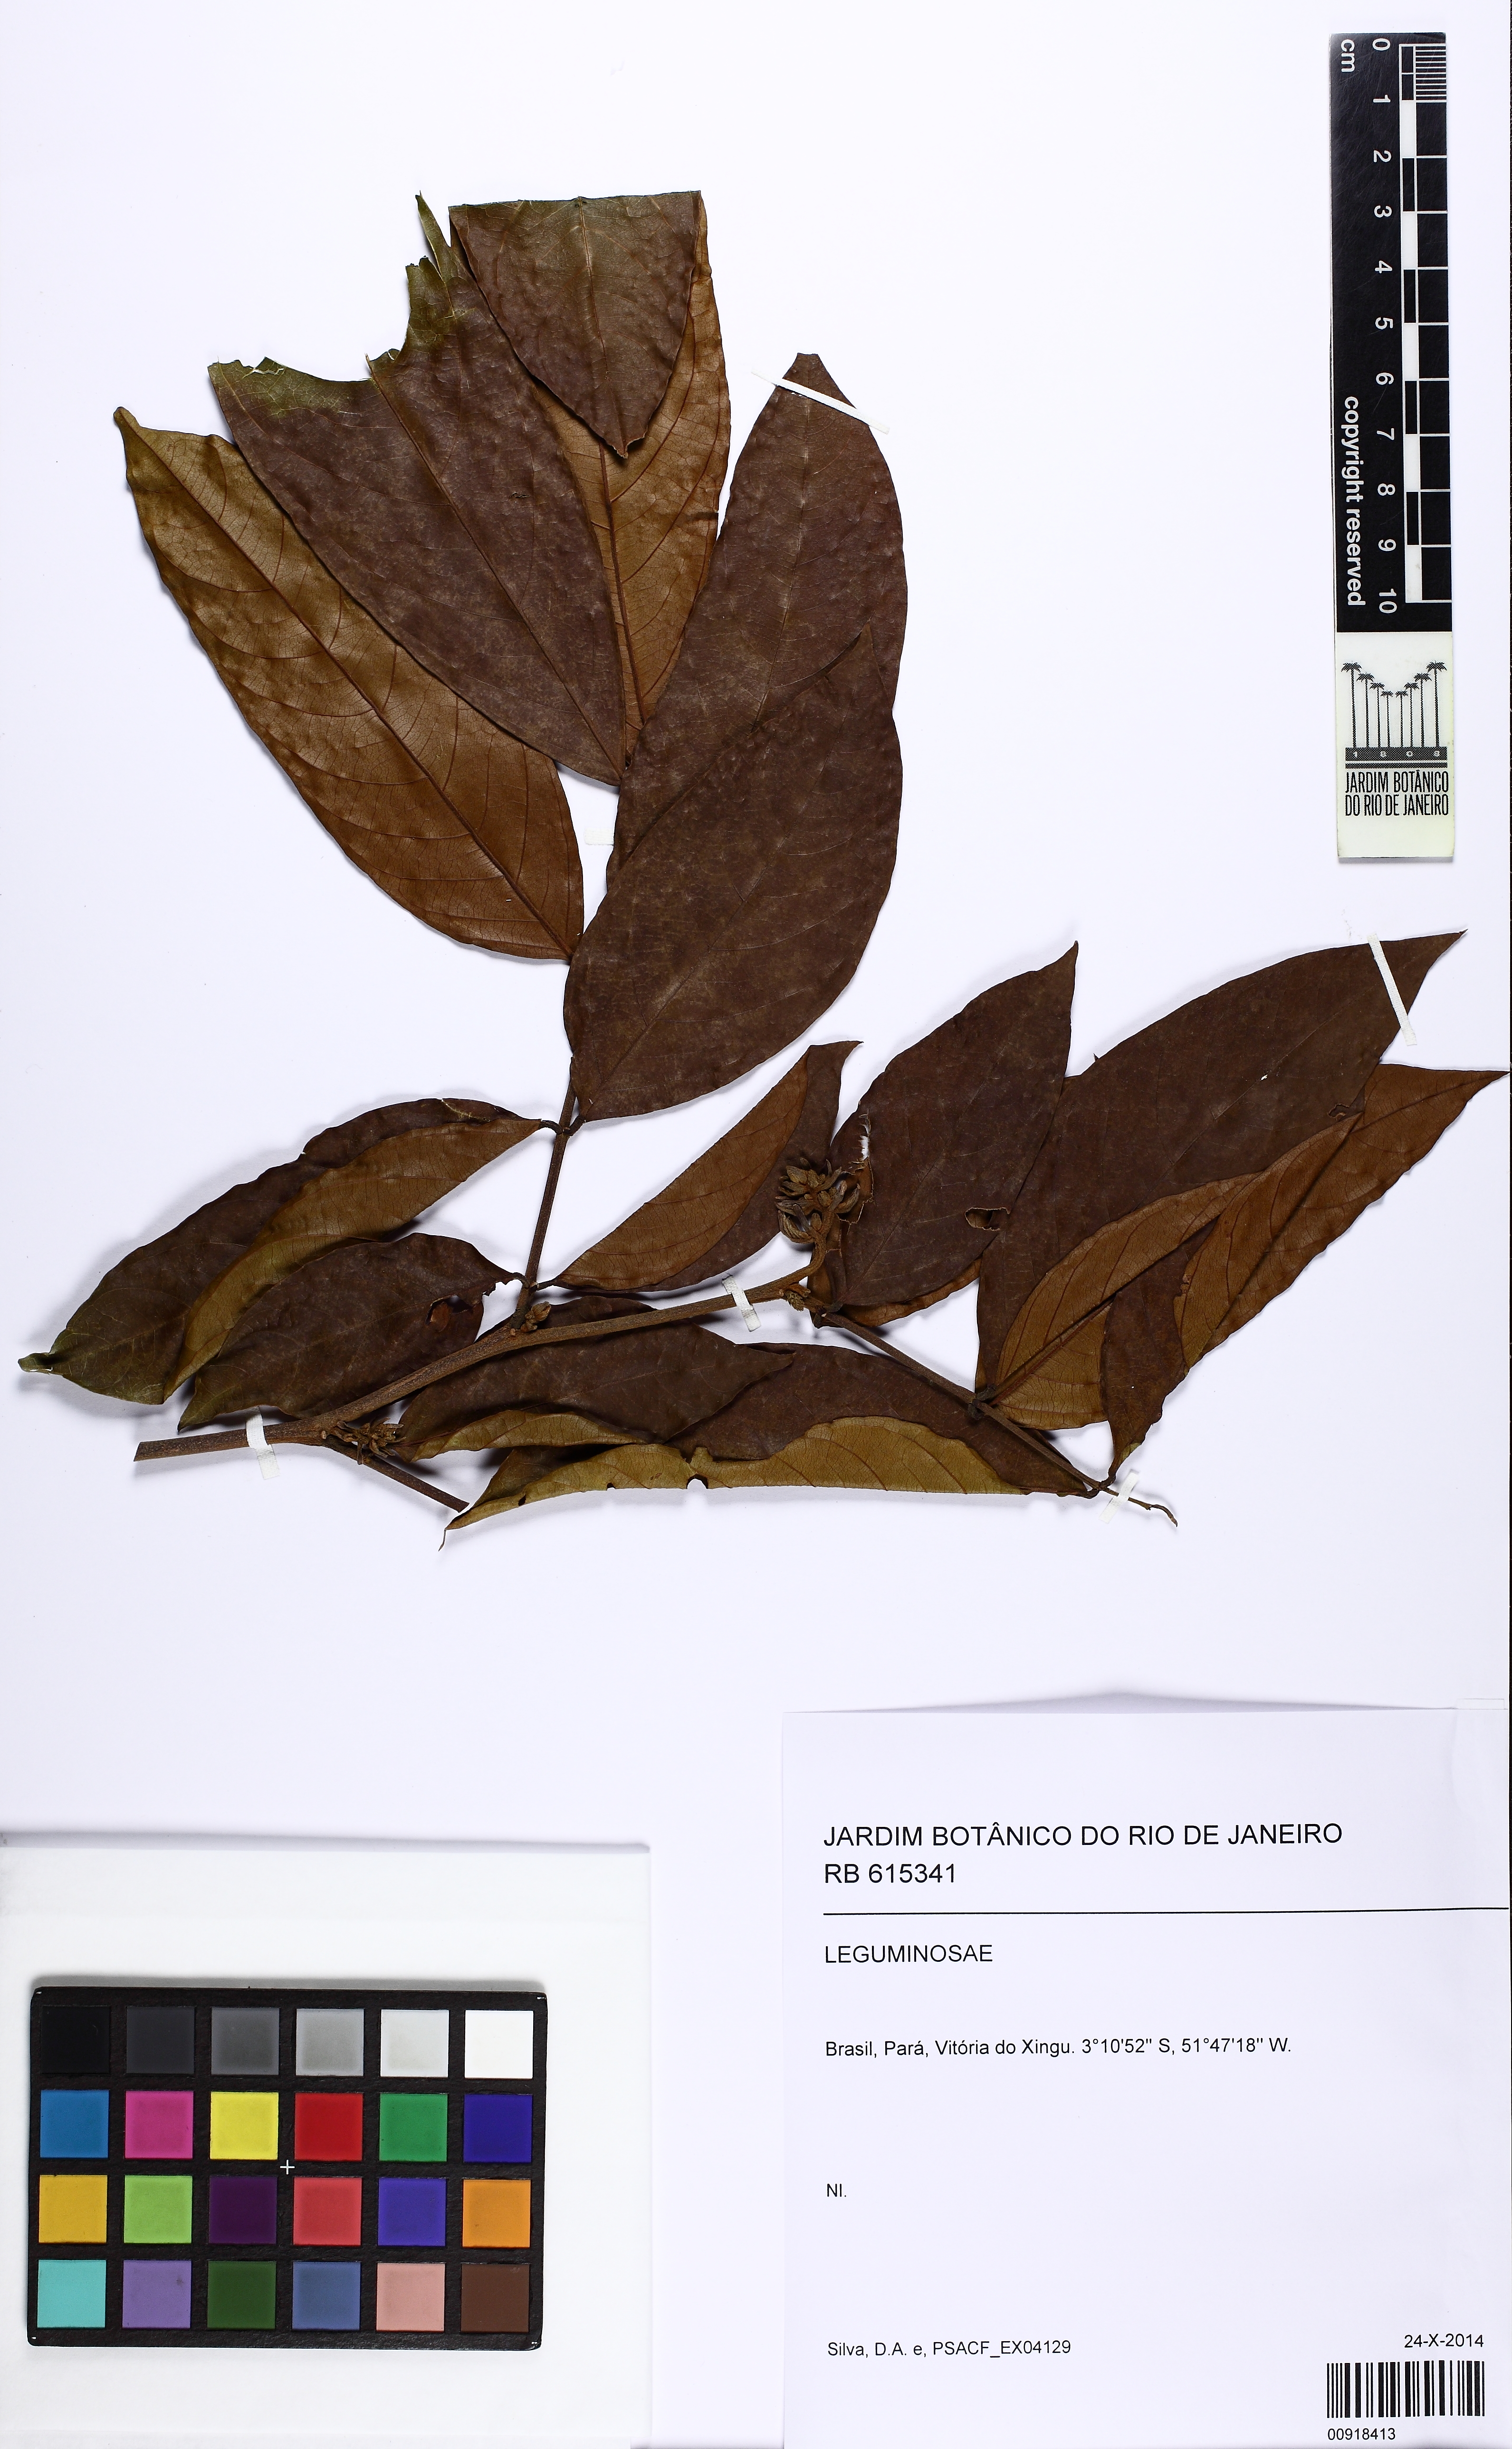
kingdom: Plantae
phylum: Tracheophyta
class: Magnoliopsida
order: Fabales
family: Fabaceae
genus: Inga
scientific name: Inga
